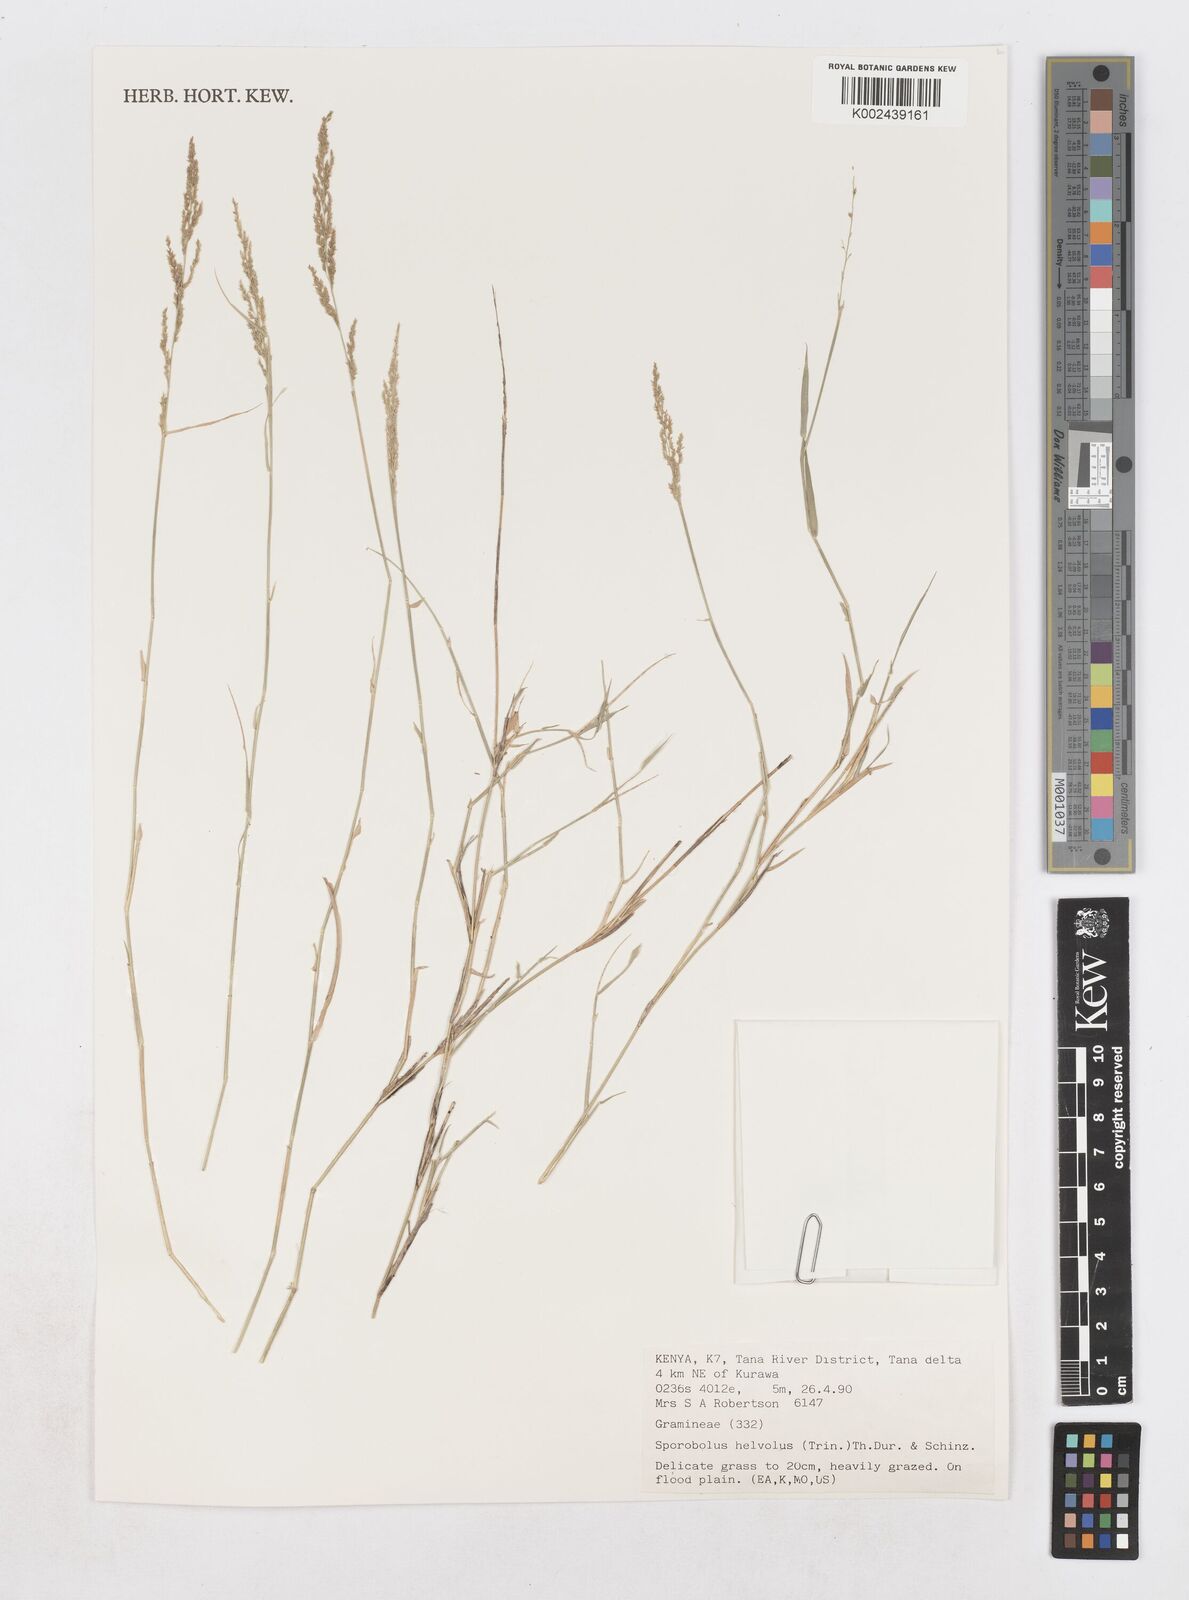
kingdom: Plantae
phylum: Tracheophyta
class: Liliopsida
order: Poales
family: Poaceae
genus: Sporobolus
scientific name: Sporobolus helvolus
